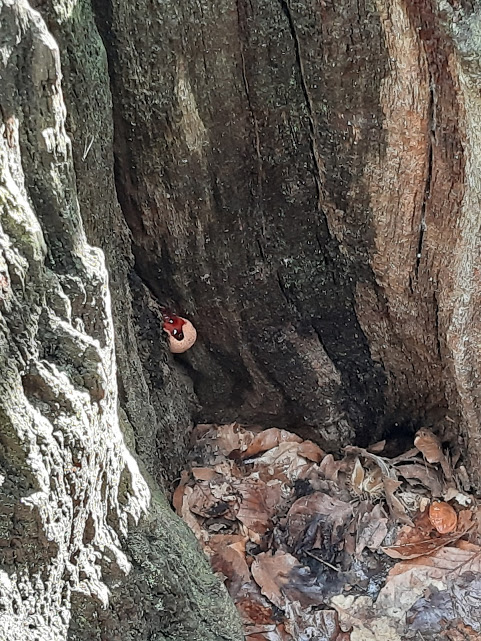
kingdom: Fungi
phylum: Basidiomycota
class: Agaricomycetes
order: Agaricales
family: Fistulinaceae
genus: Fistulina
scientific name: Fistulina hepatica
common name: oksetunge
